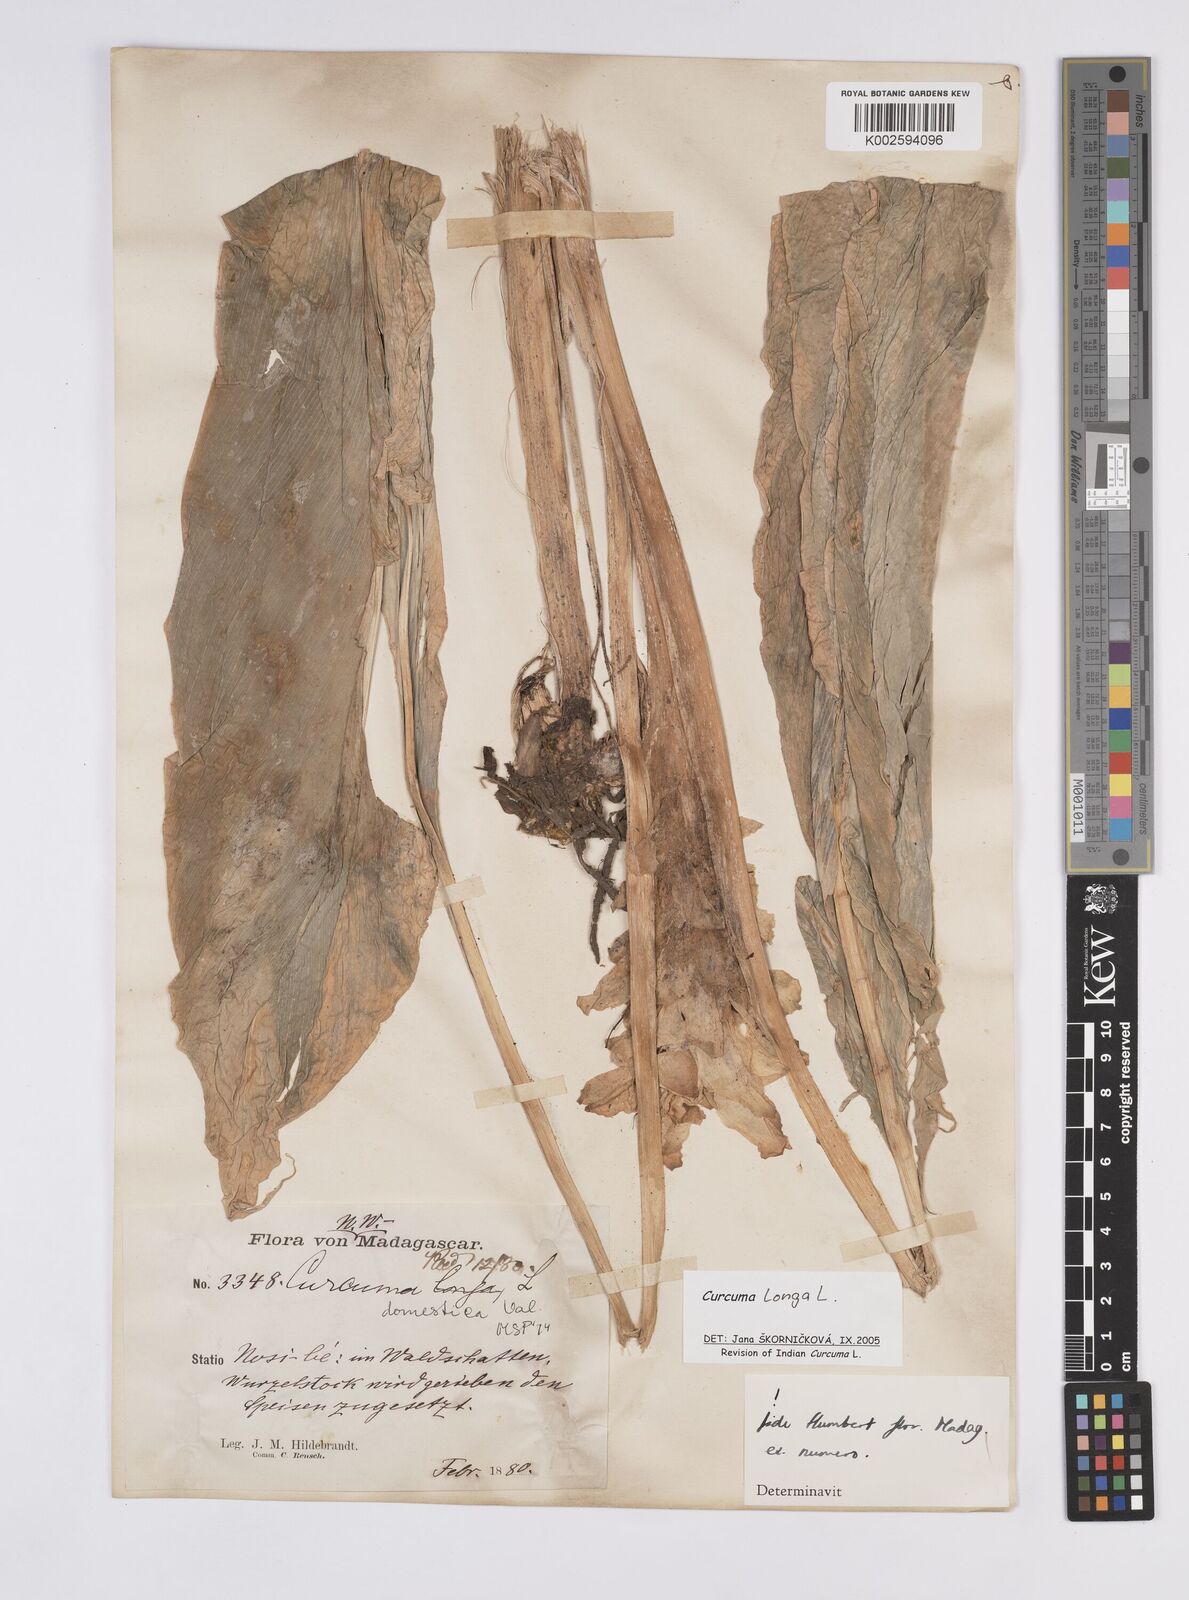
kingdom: Plantae
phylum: Tracheophyta
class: Liliopsida
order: Zingiberales
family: Zingiberaceae
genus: Curcuma
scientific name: Curcuma longa
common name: Turmeric
